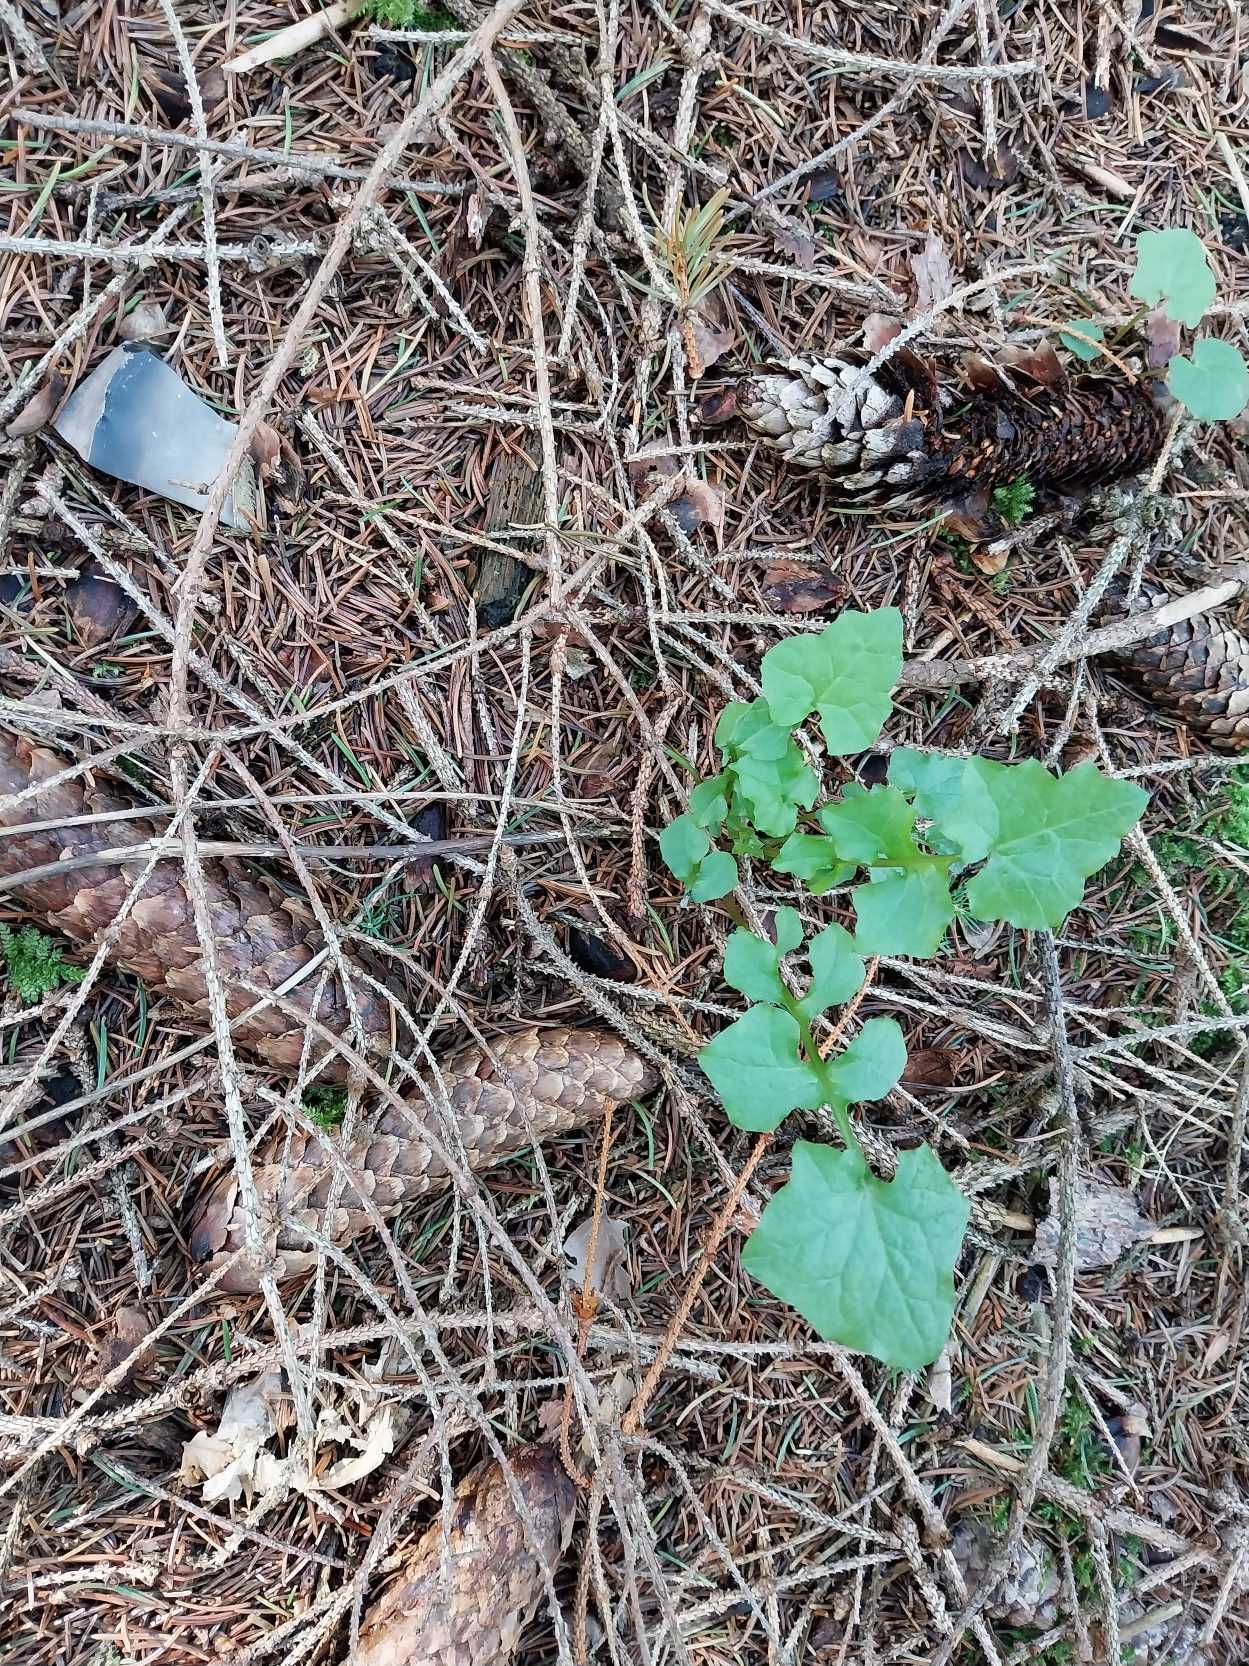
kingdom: Plantae
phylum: Tracheophyta
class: Magnoliopsida
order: Asterales
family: Asteraceae
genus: Mycelis
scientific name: Mycelis muralis
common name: Skov-salat
